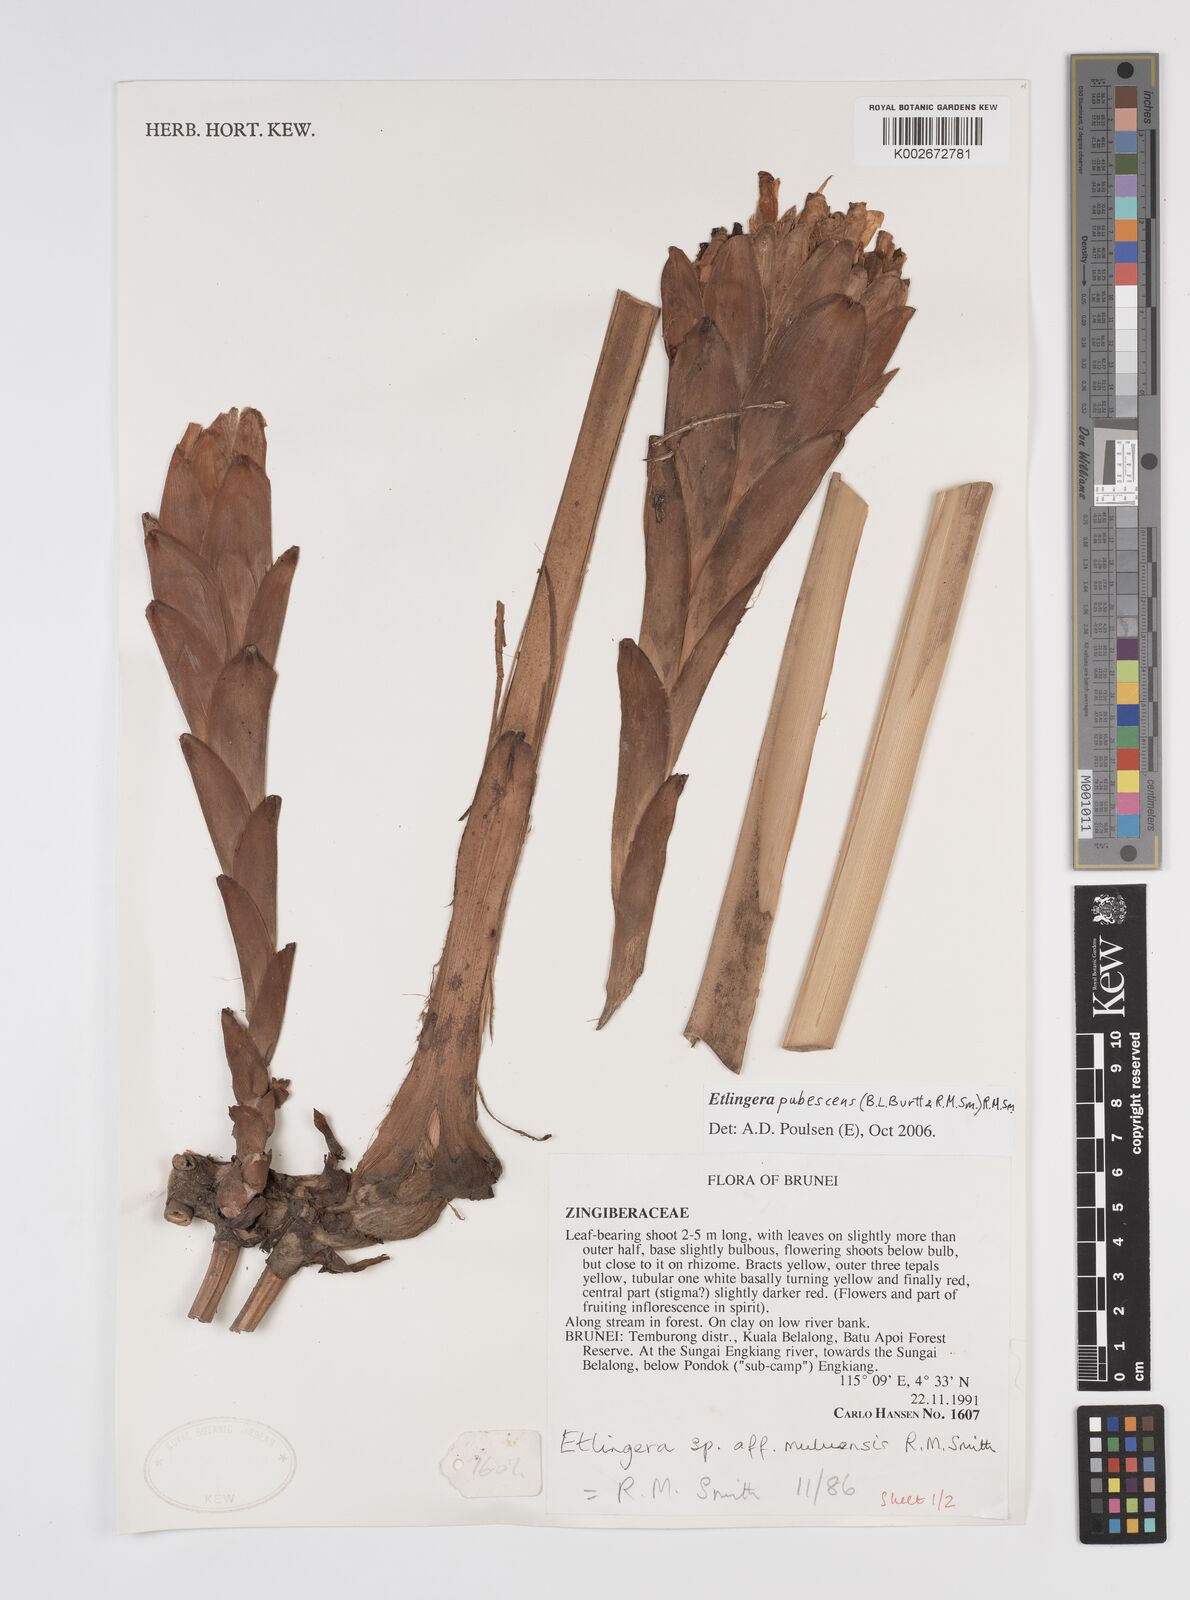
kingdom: Plantae
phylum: Tracheophyta
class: Liliopsida
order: Zingiberales
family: Zingiberaceae
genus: Etlingera
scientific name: Etlingera pubescens
